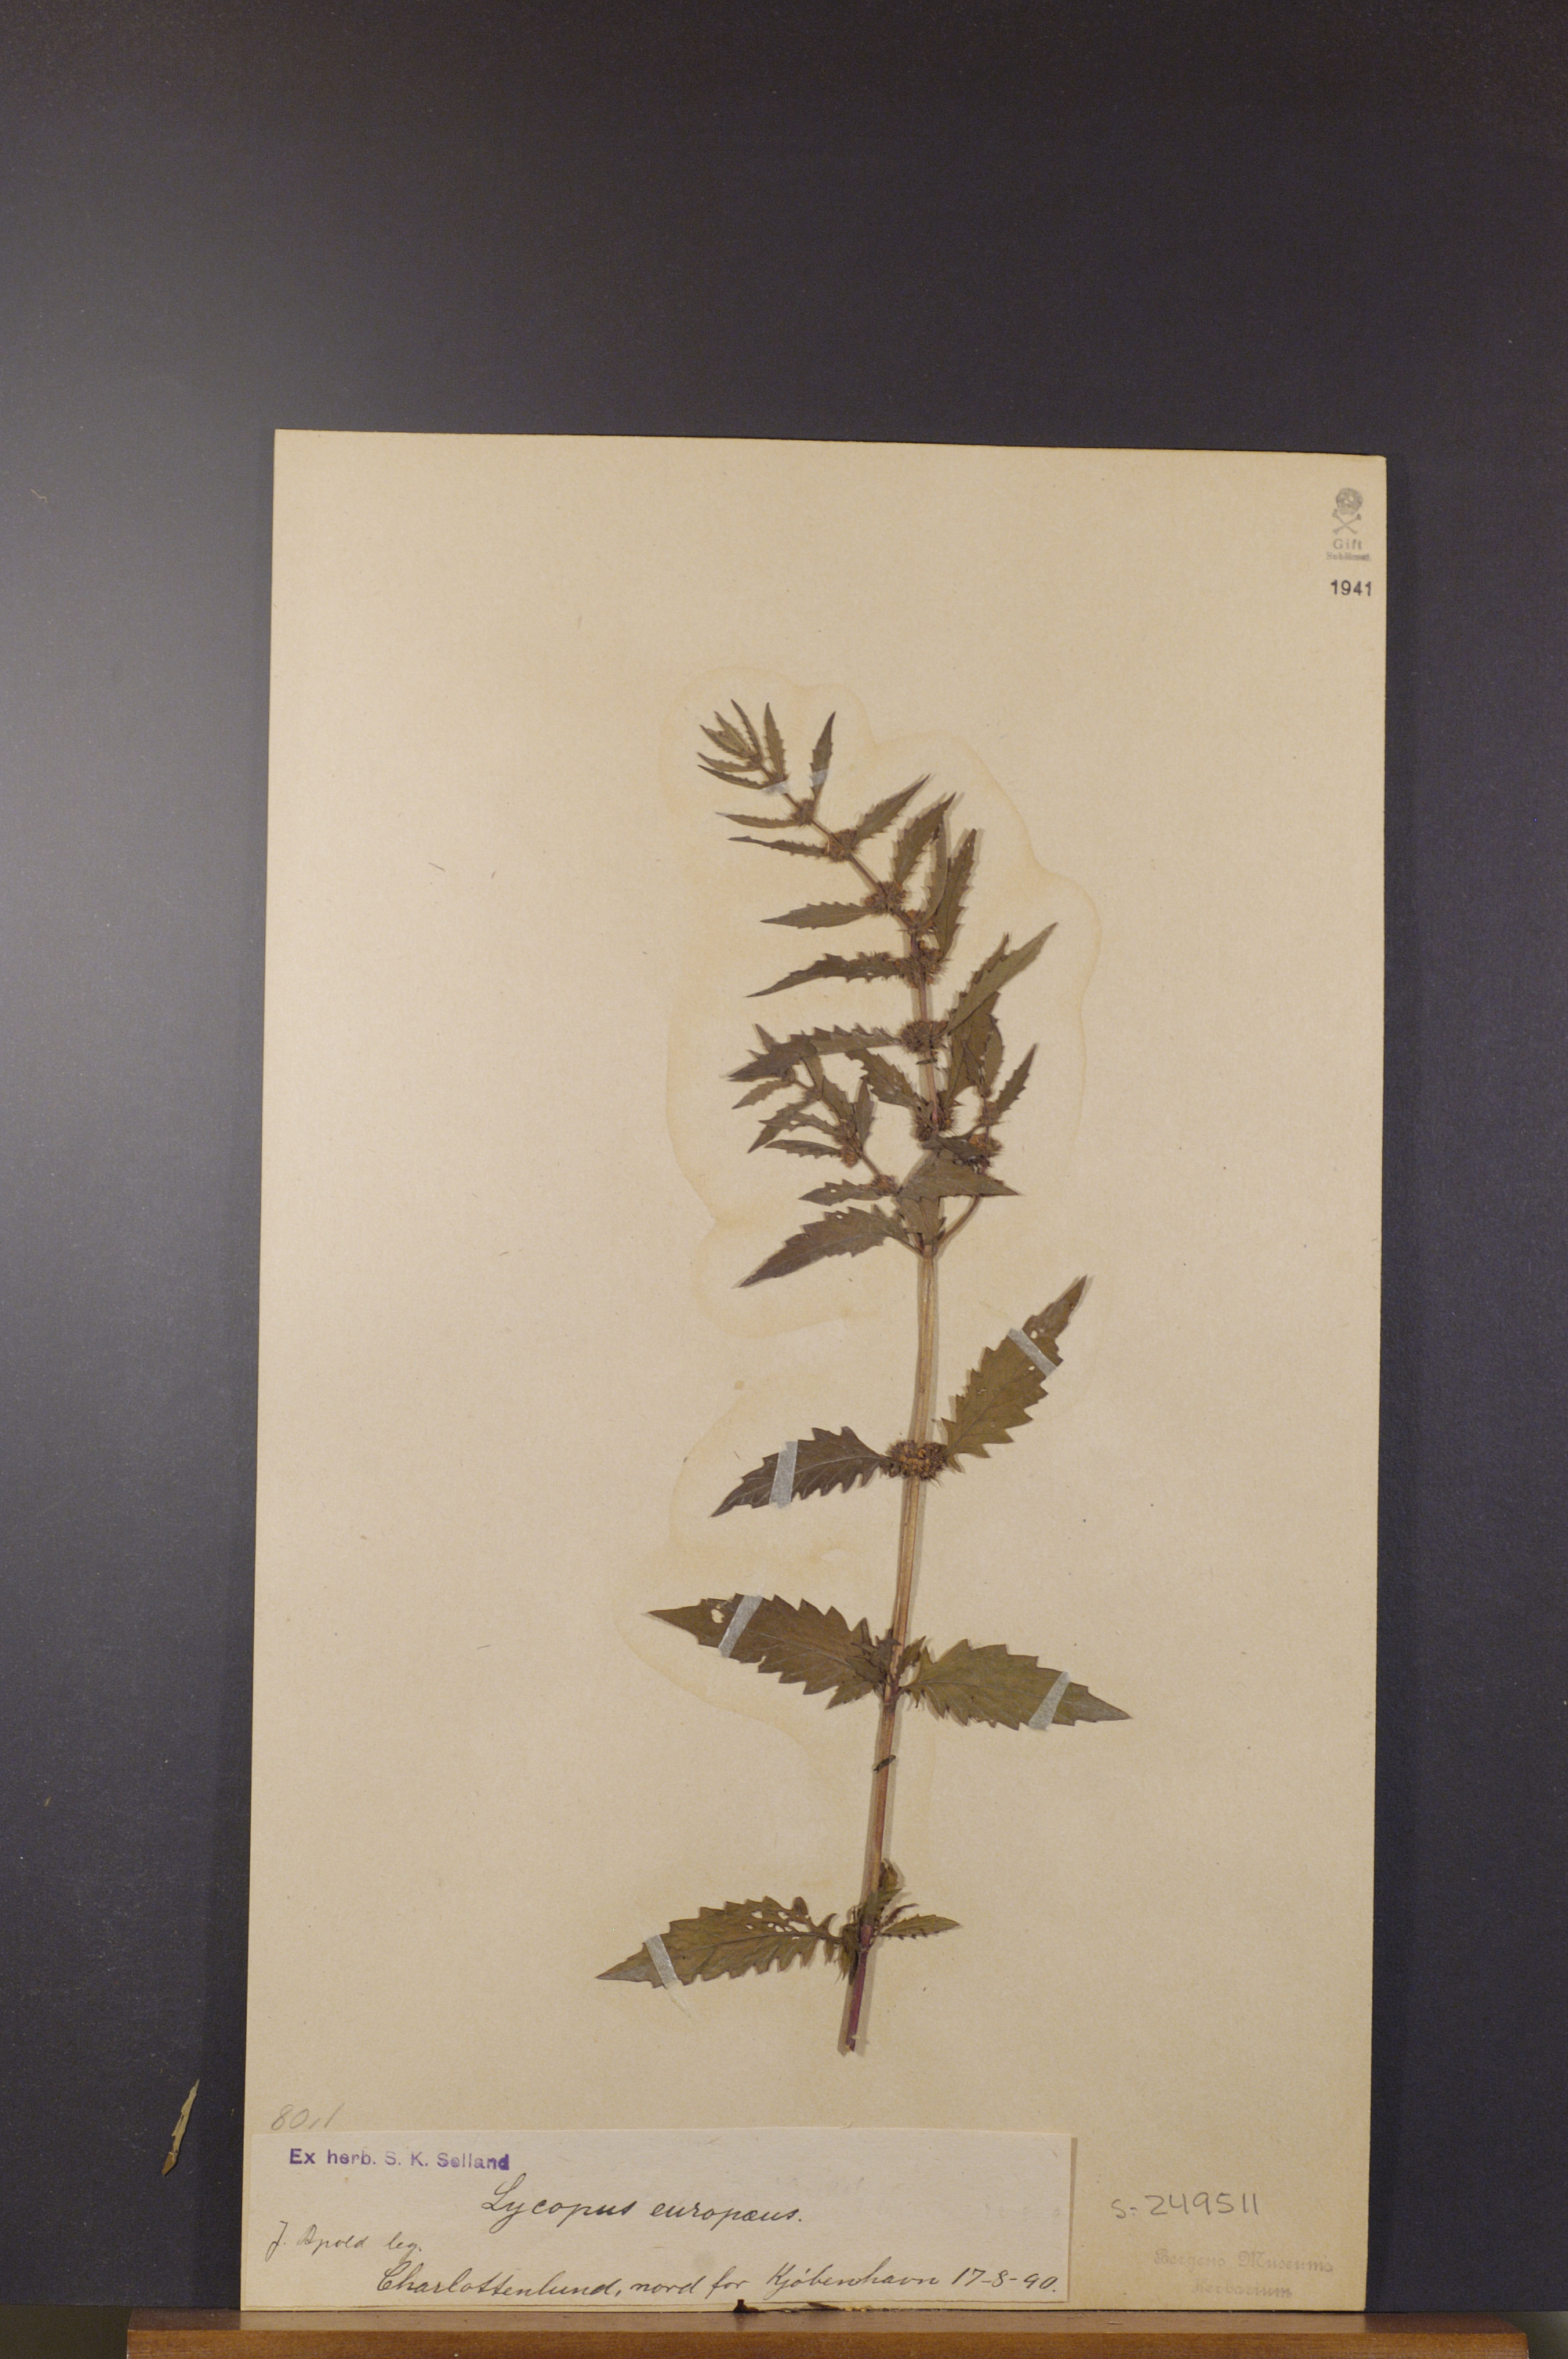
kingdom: Plantae
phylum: Tracheophyta
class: Magnoliopsida
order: Lamiales
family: Lamiaceae
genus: Lycopus
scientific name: Lycopus europaeus
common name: European bugleweed
